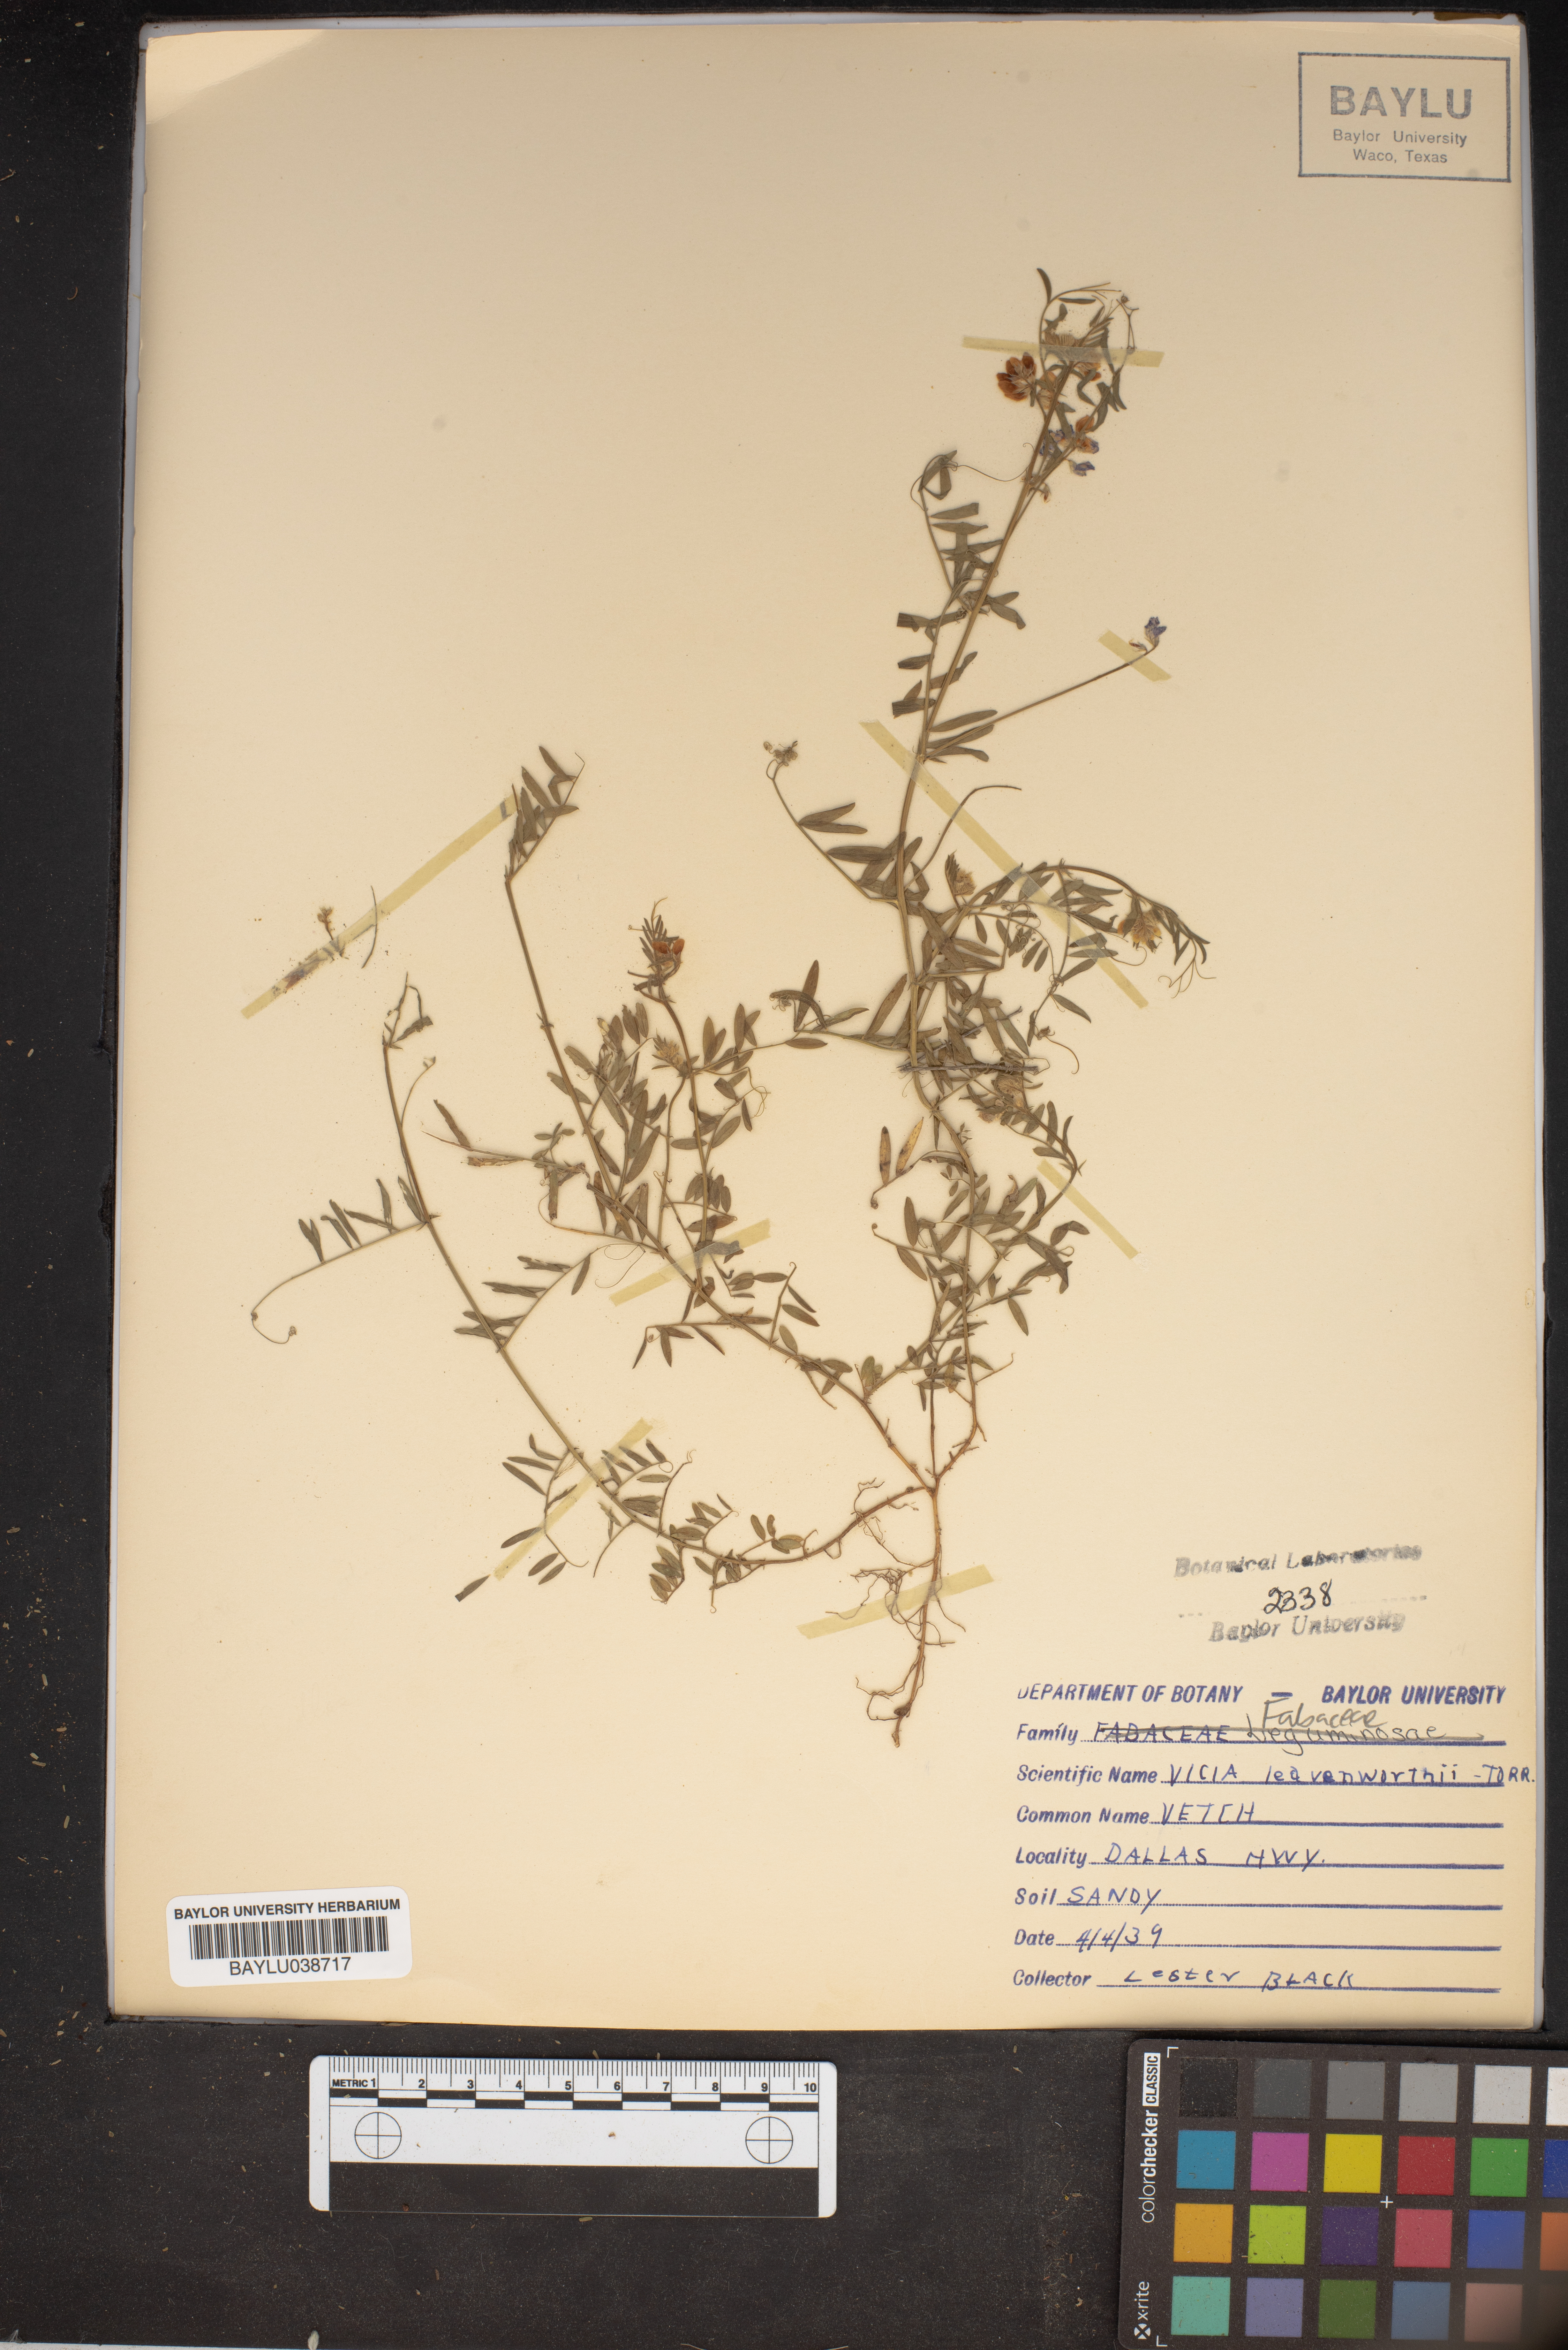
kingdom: Plantae
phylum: Tracheophyta
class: Magnoliopsida
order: Fabales
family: Fabaceae
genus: Vicia
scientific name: Vicia ludoviciana
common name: Louisiana vetch
